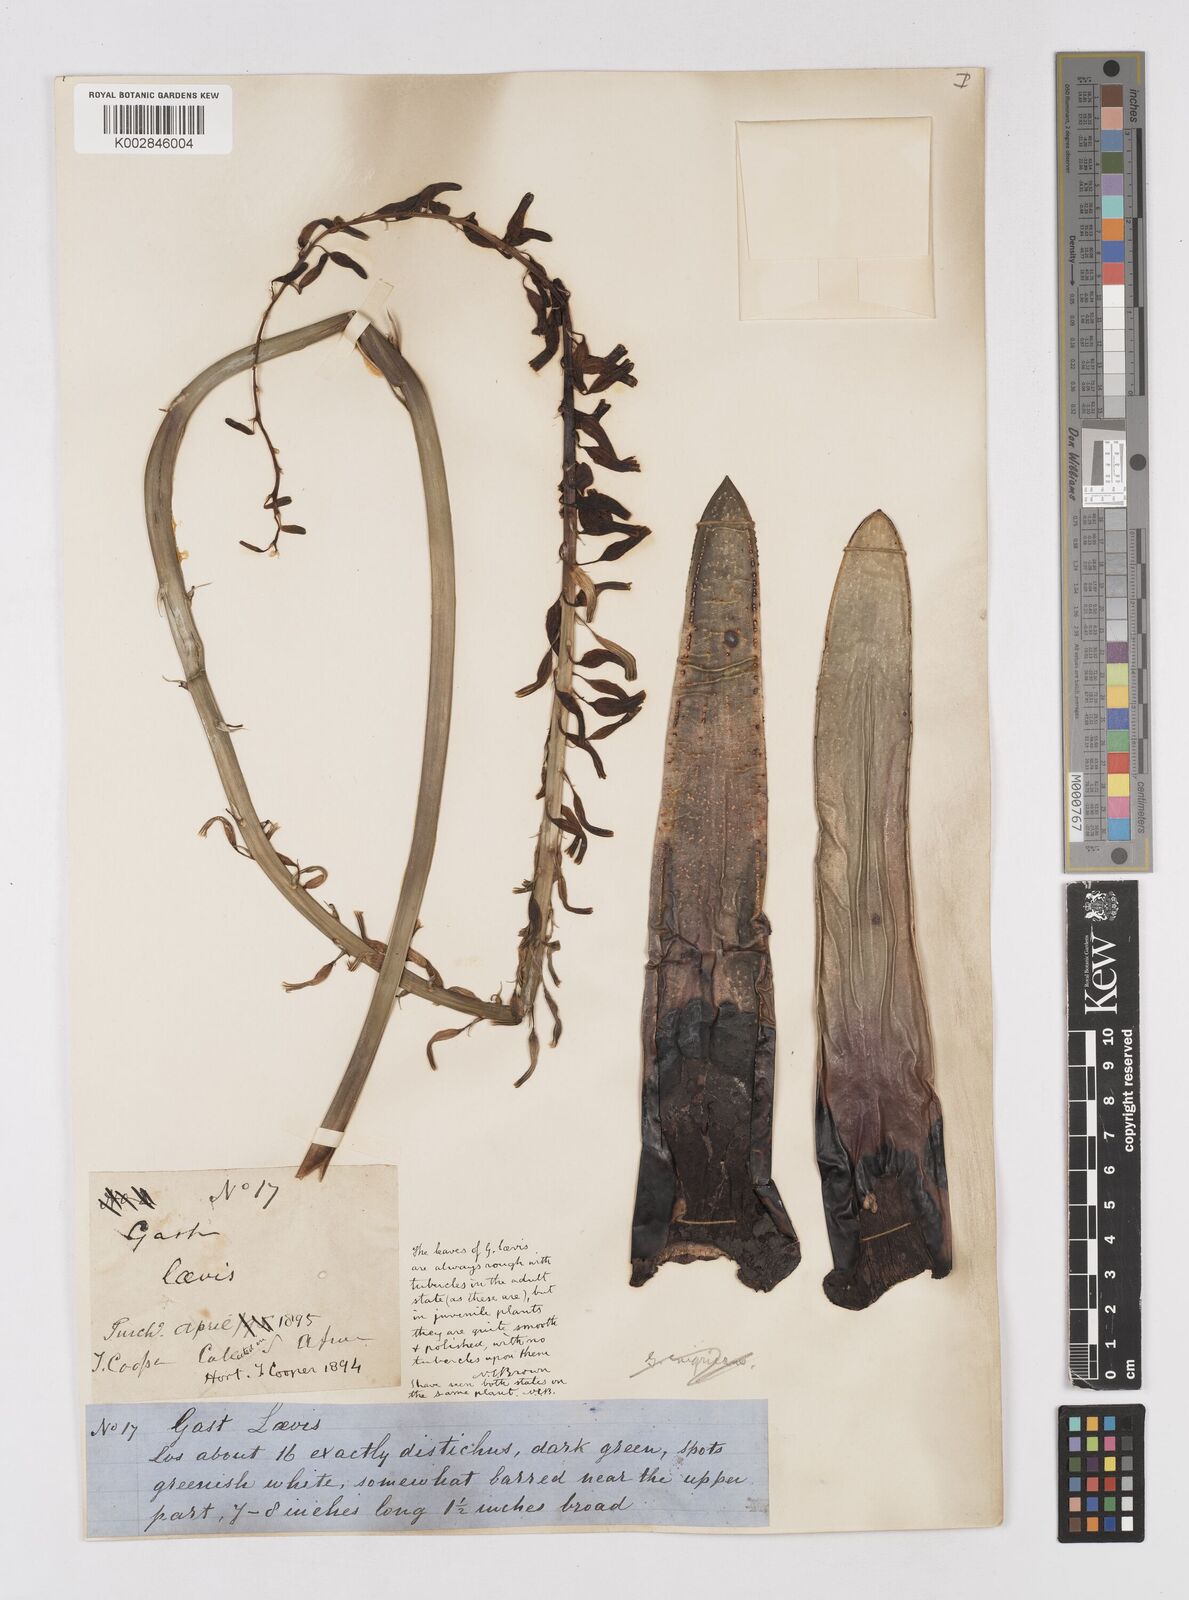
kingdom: Plantae
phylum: Tracheophyta
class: Liliopsida
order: Asparagales
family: Asphodelaceae
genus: Gasteria
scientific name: Gasteria obliqua
